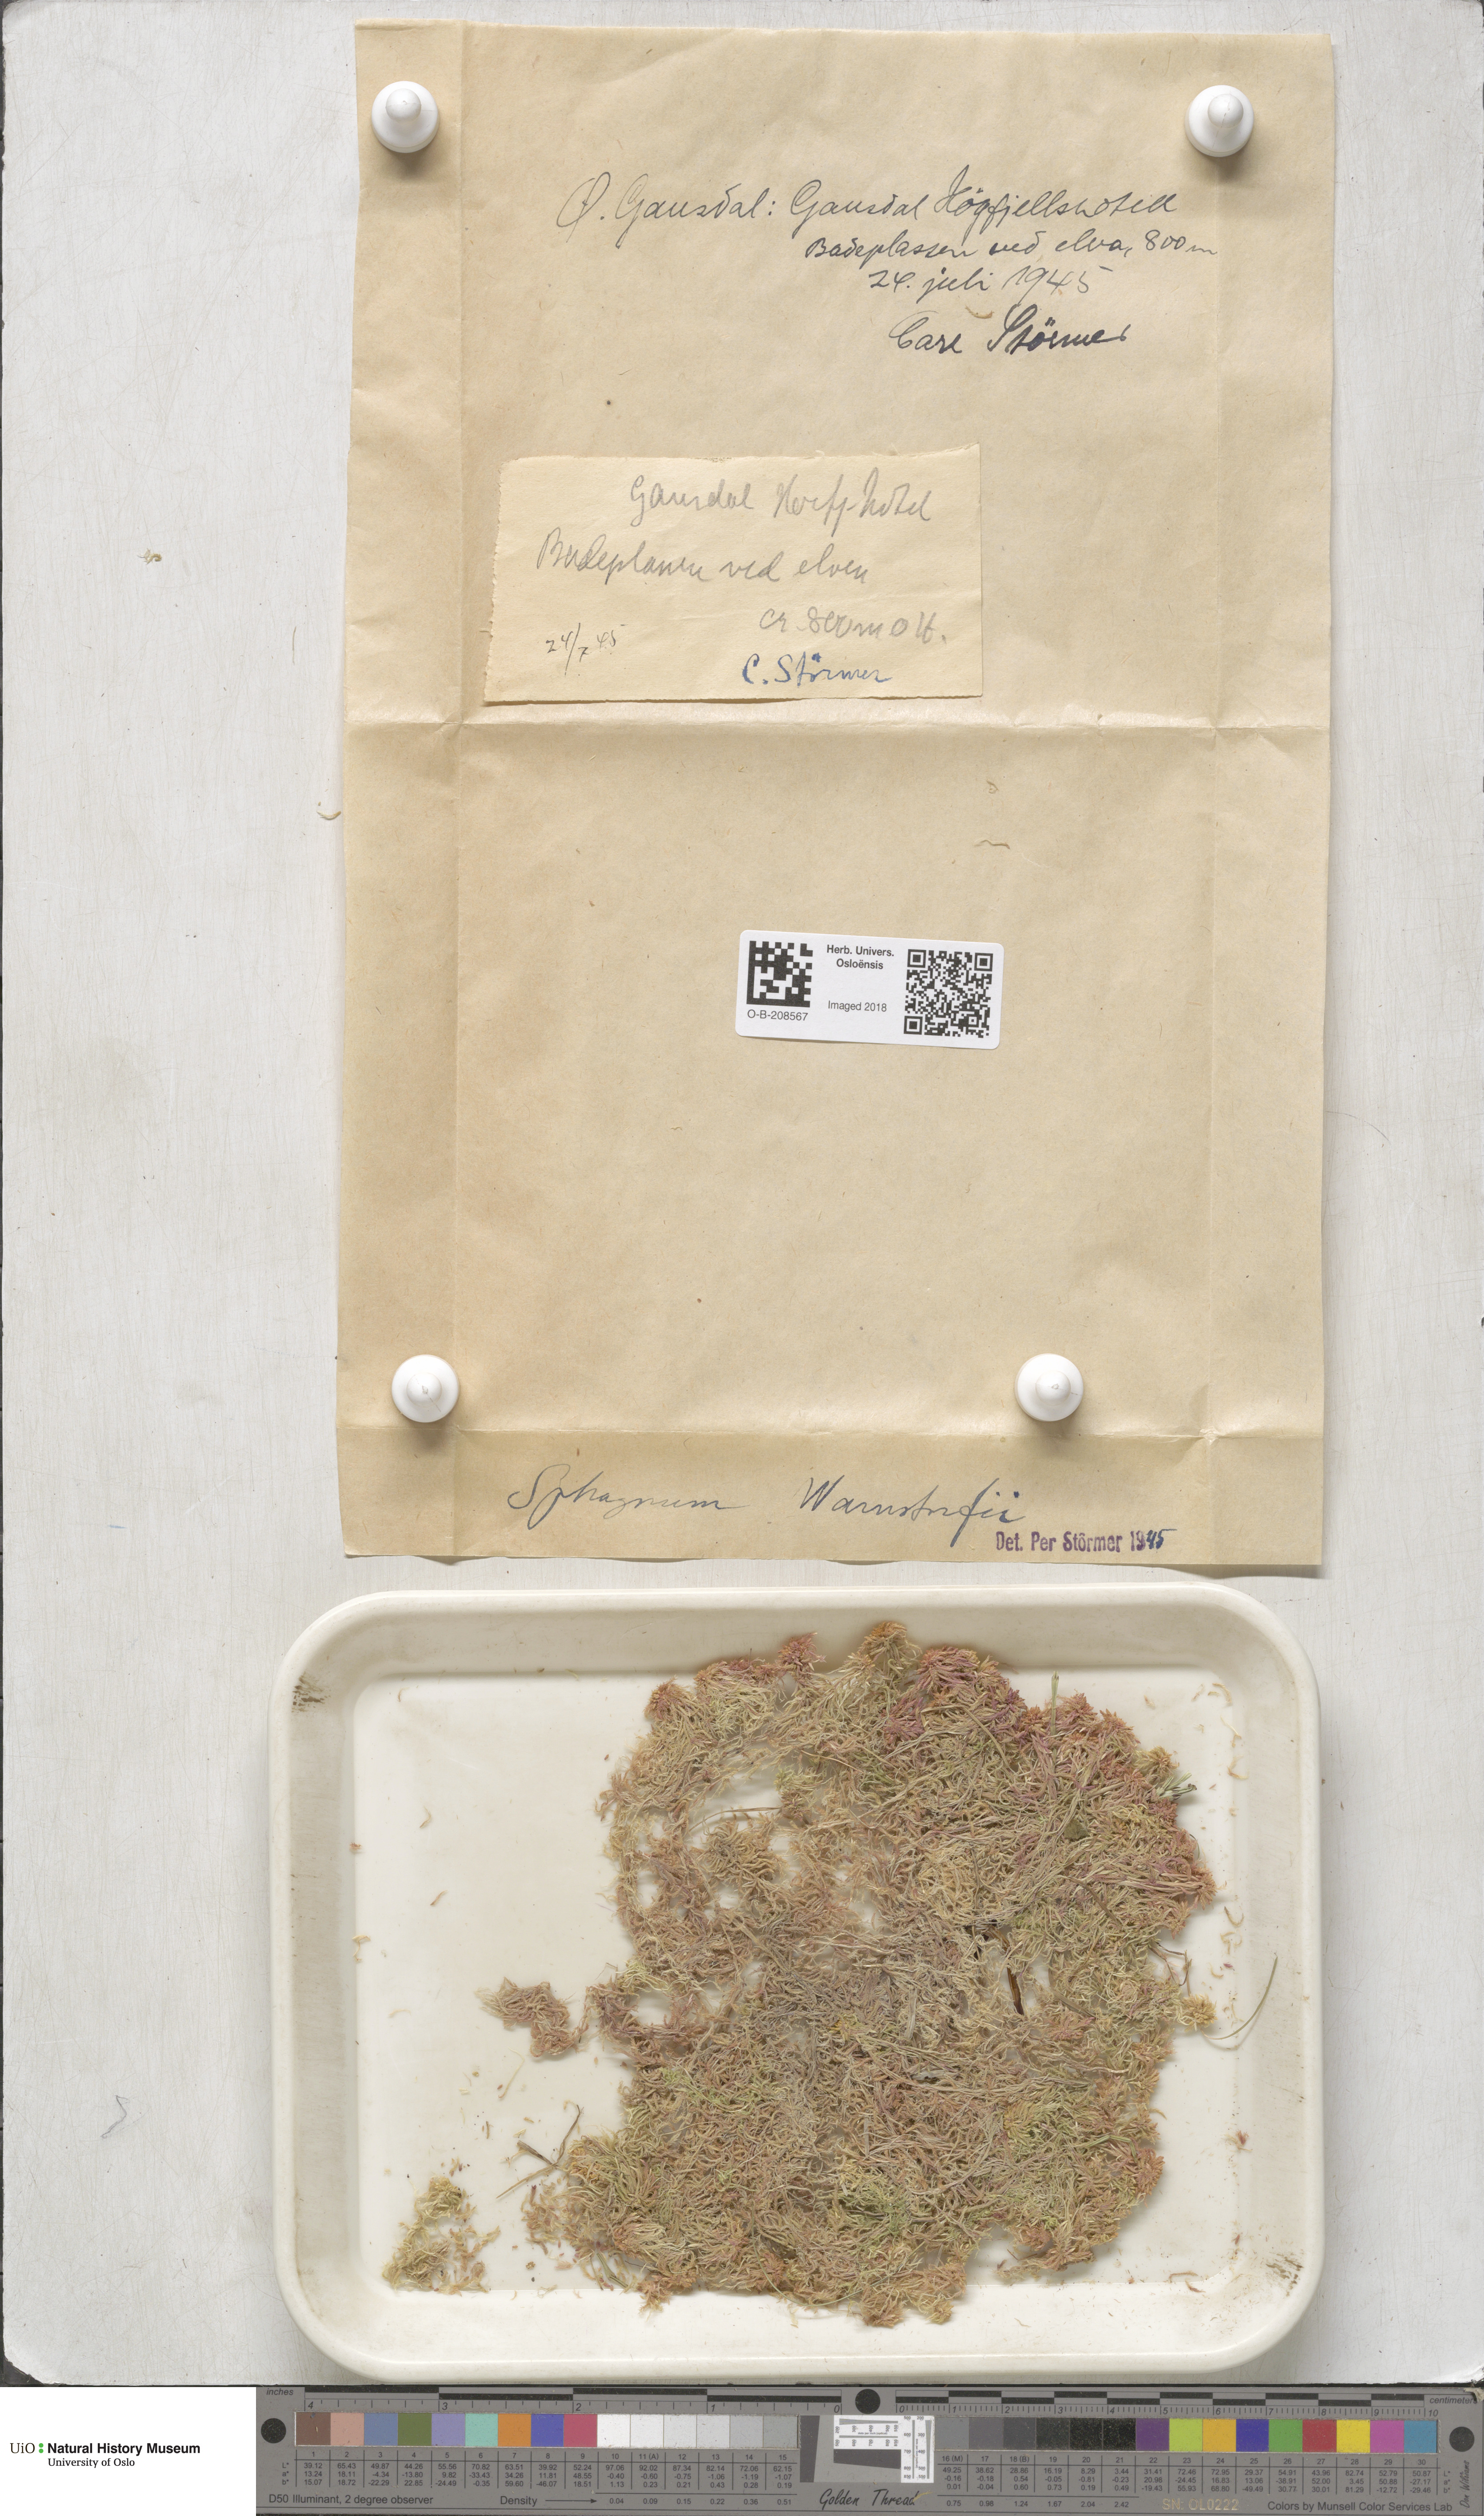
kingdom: Plantae
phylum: Bryophyta
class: Sphagnopsida
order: Sphagnales
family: Sphagnaceae
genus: Sphagnum
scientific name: Sphagnum warnstorfii
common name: Warnstorf's peat moss
